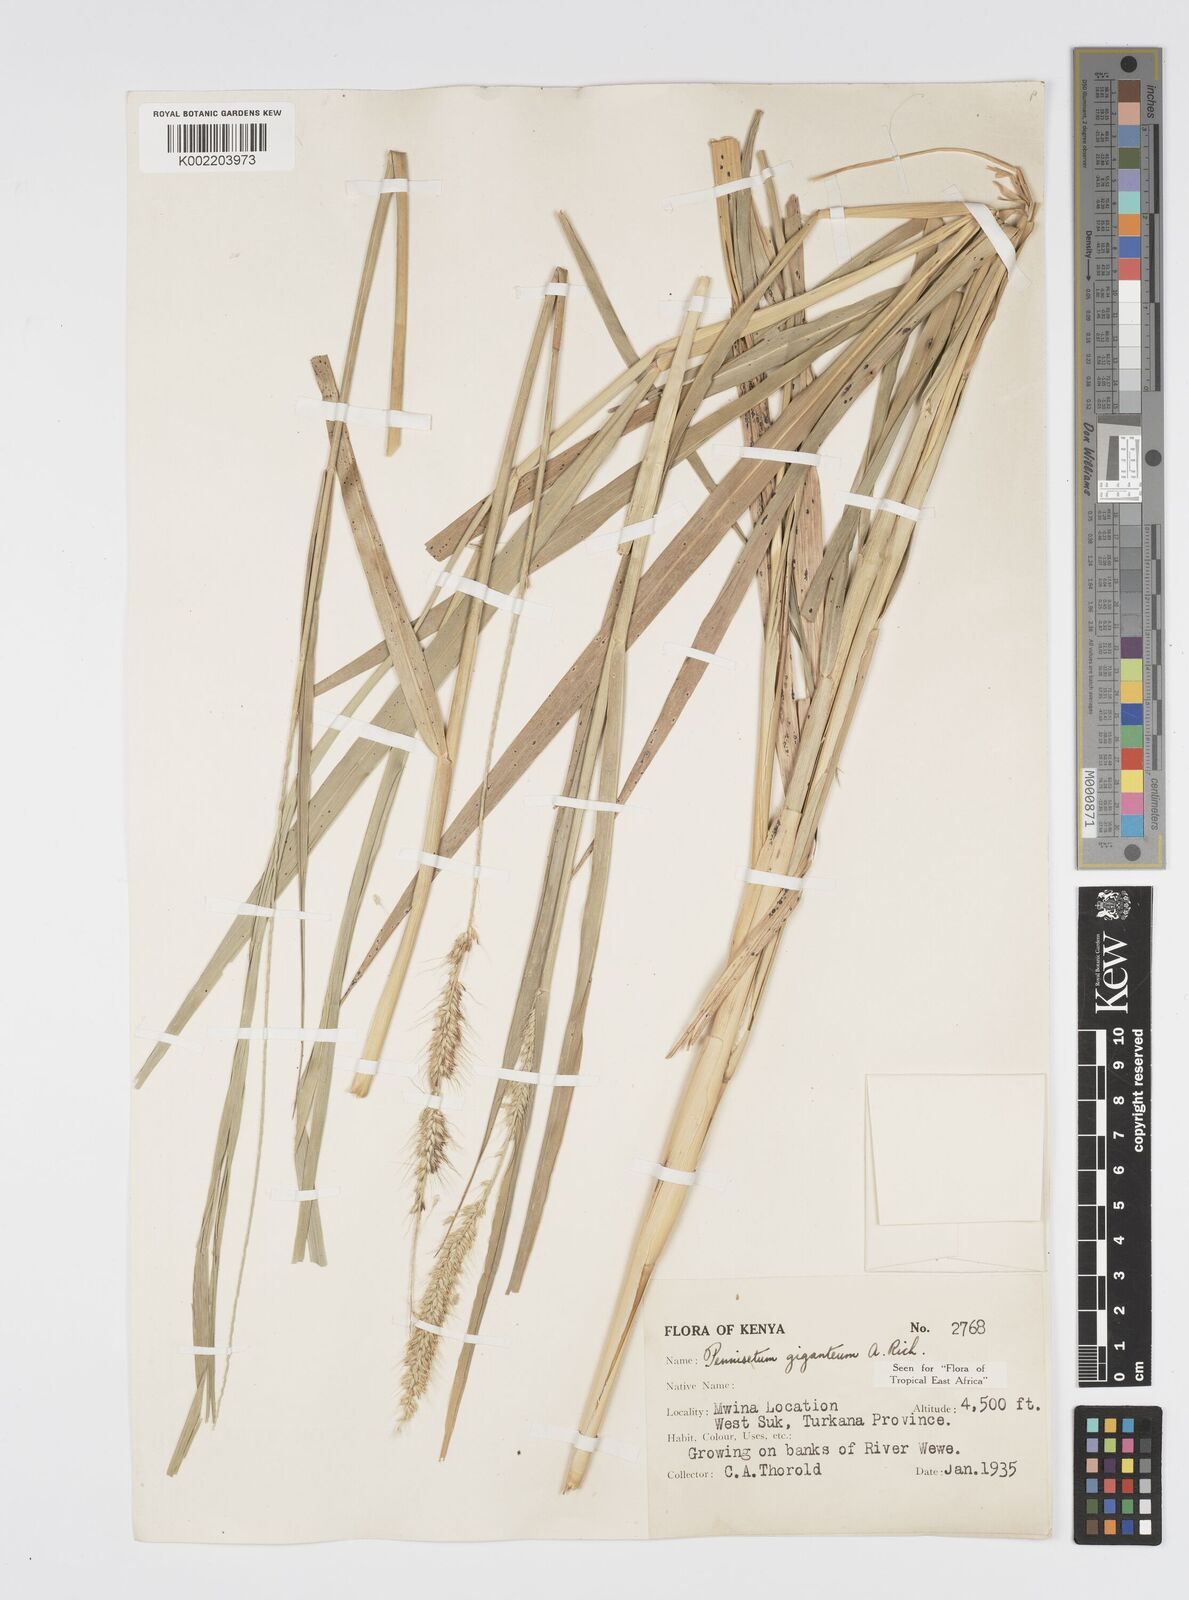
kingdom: Plantae
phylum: Tracheophyta
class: Liliopsida
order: Poales
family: Poaceae
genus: Cenchrus
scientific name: Cenchrus caudatus
